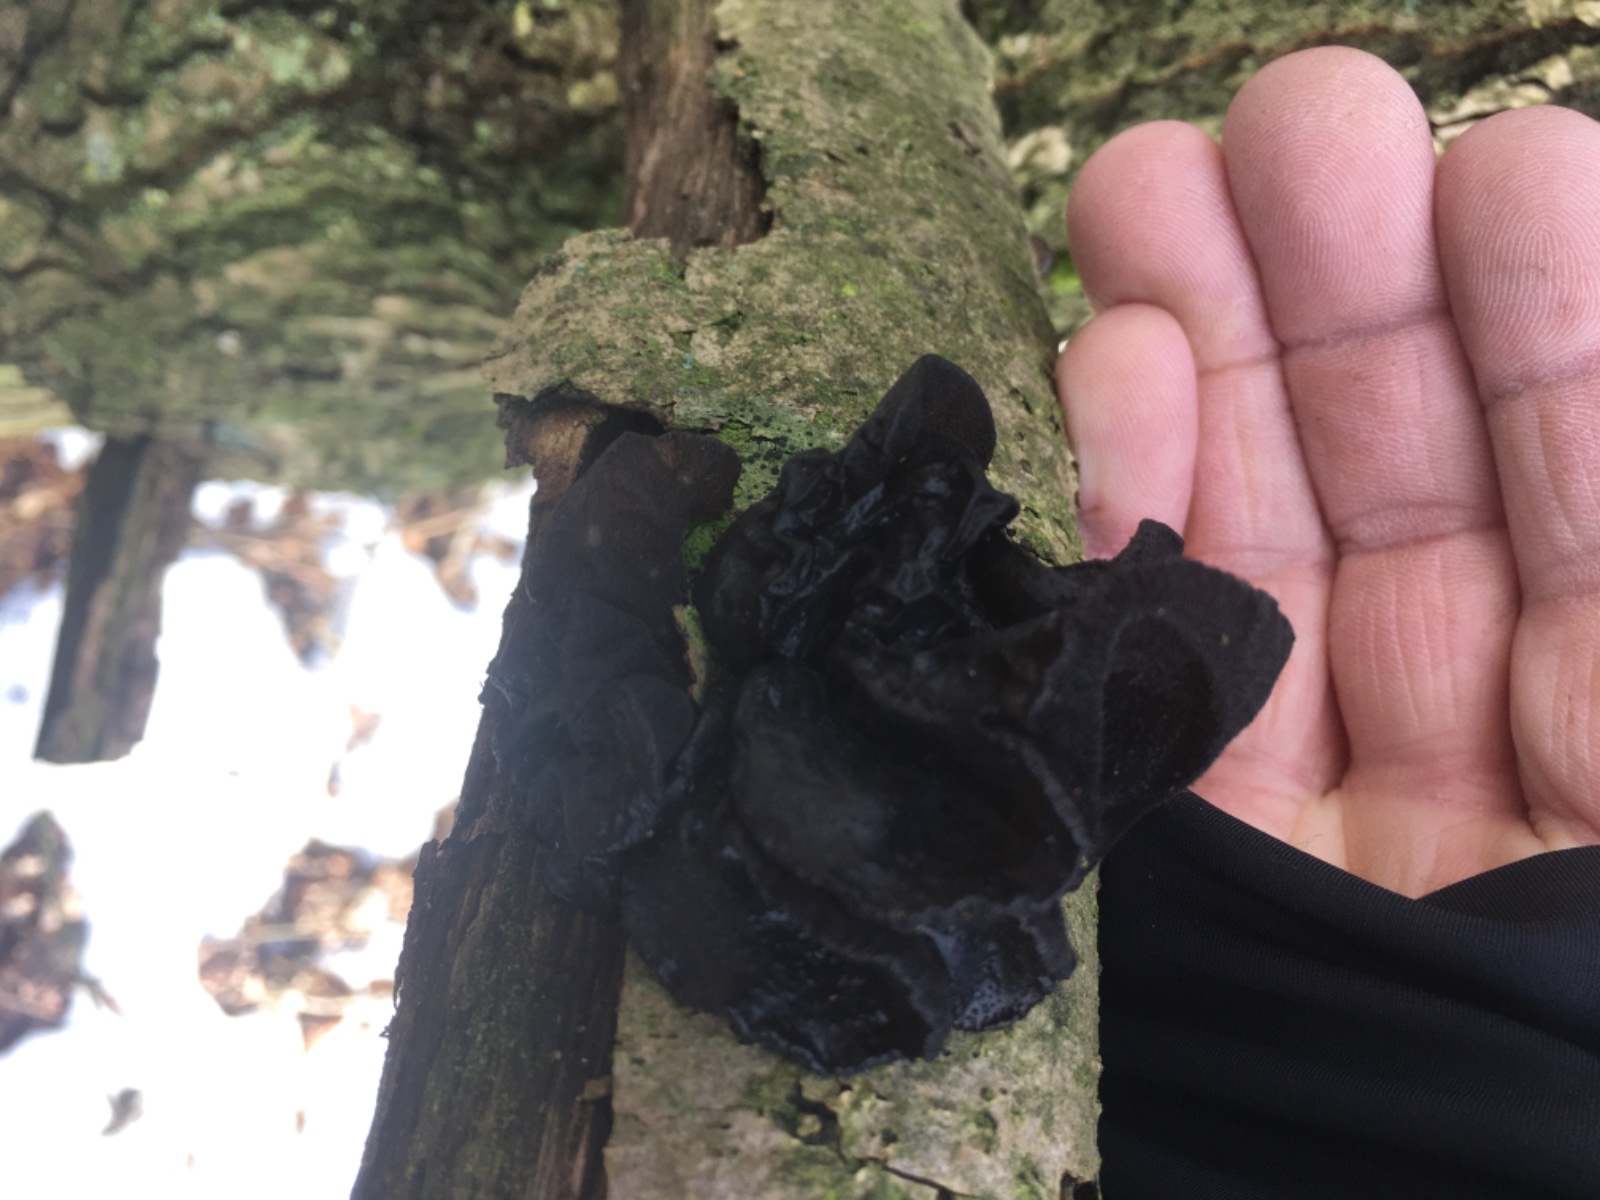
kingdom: Fungi
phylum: Basidiomycota
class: Agaricomycetes
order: Auriculariales
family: Auriculariaceae
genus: Exidia
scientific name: Exidia glandulosa
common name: ege-bævretop
